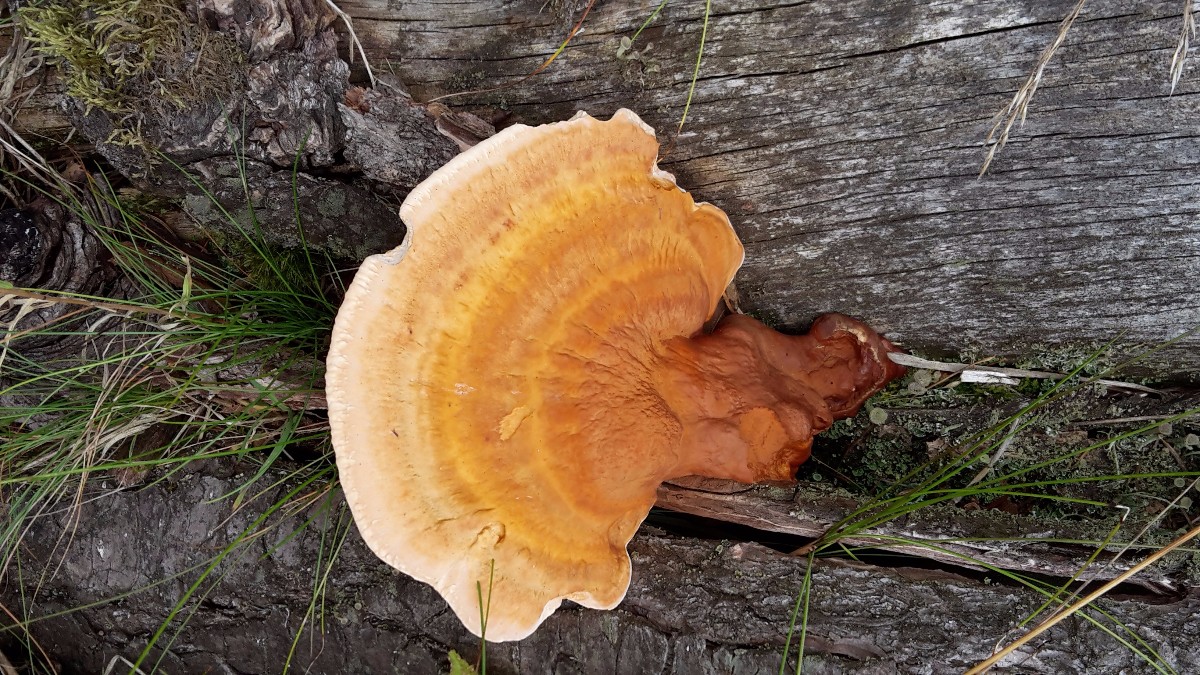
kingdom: Fungi
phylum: Basidiomycota
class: Agaricomycetes
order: Polyporales
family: Polyporaceae
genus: Ganoderma
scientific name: Ganoderma lucidum
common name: skinnende lakporesvamp
